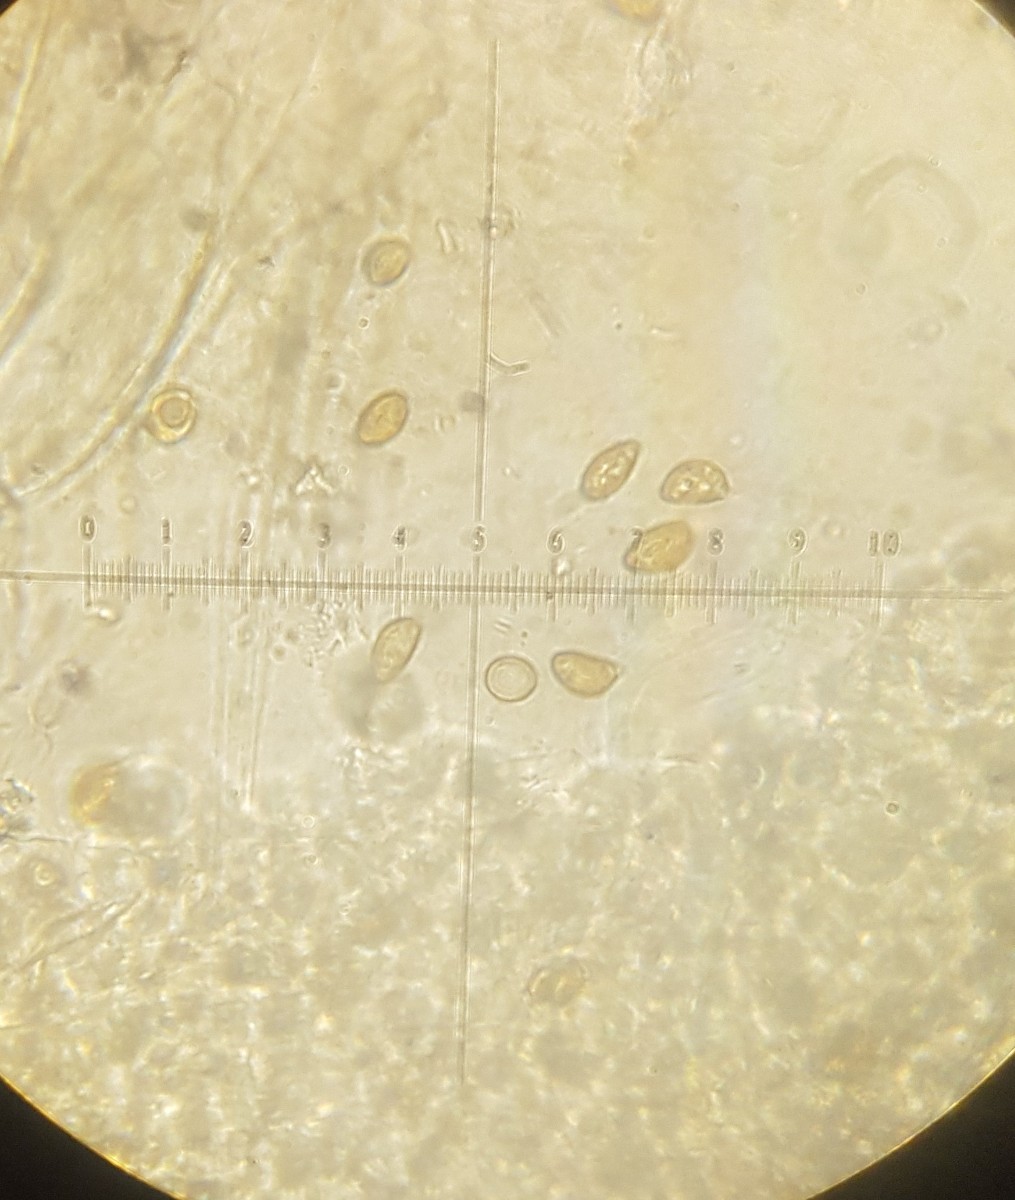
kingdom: Fungi
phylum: Basidiomycota
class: Agaricomycetes
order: Agaricales
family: Inocybaceae
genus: Inocybe
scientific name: Inocybe paleoveneta
